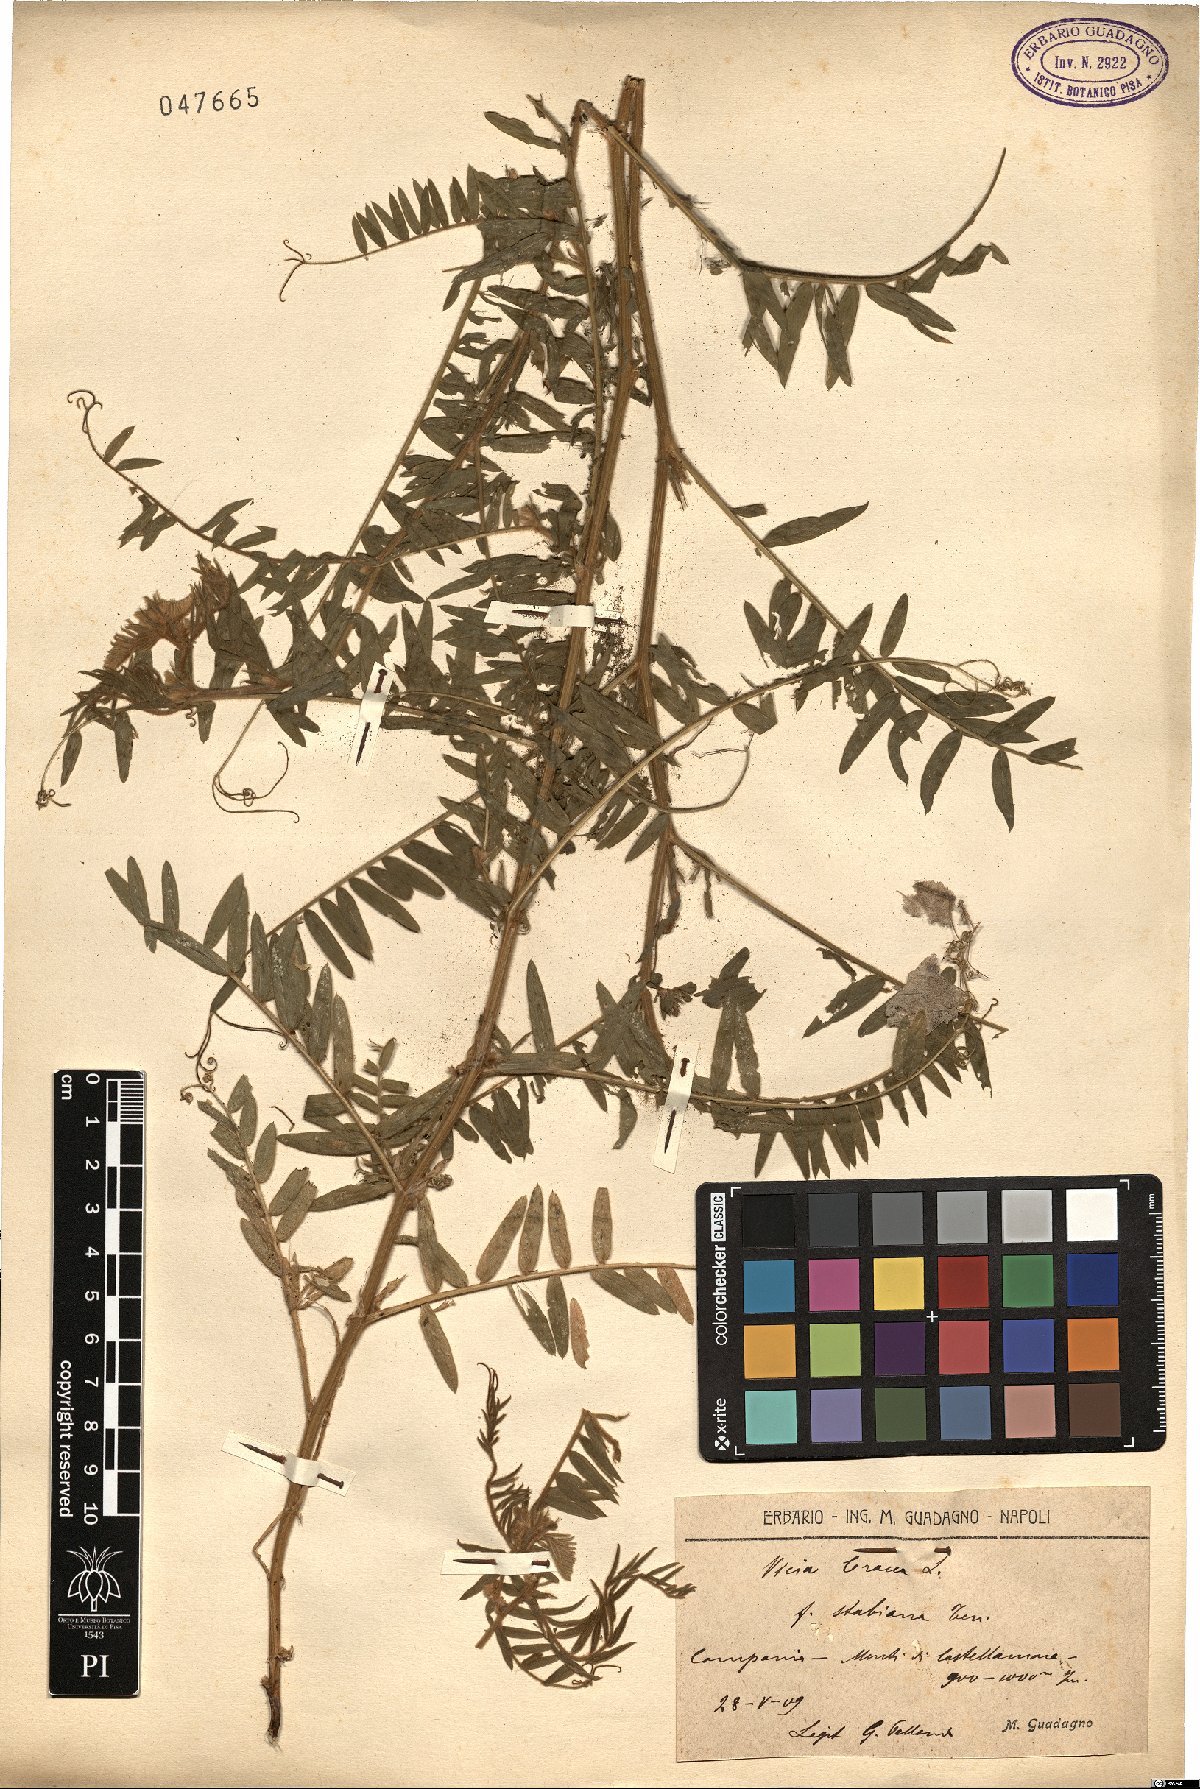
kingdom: Plantae
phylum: Tracheophyta
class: Magnoliopsida
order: Fabales
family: Fabaceae
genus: Vicia
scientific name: Vicia cracca
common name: Bird vetch
